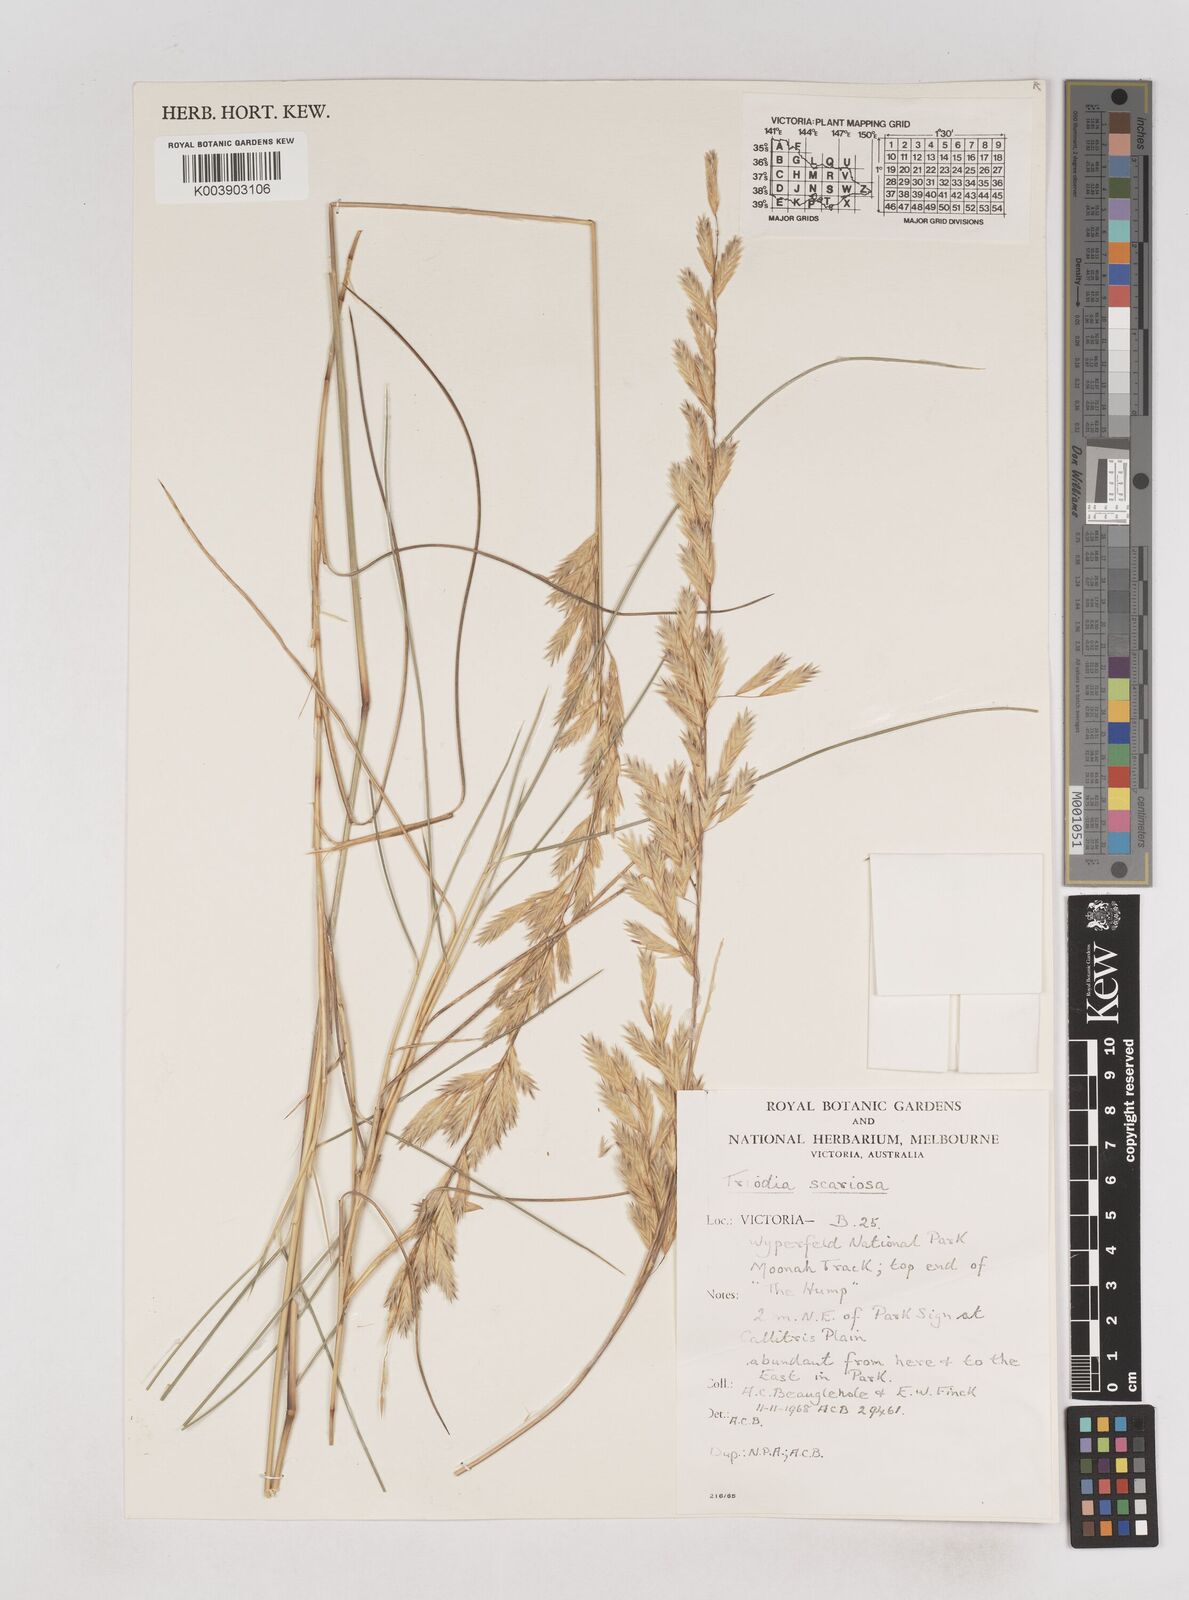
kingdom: Plantae
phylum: Tracheophyta
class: Liliopsida
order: Poales
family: Poaceae
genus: Triodia
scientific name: Triodia scariosa
